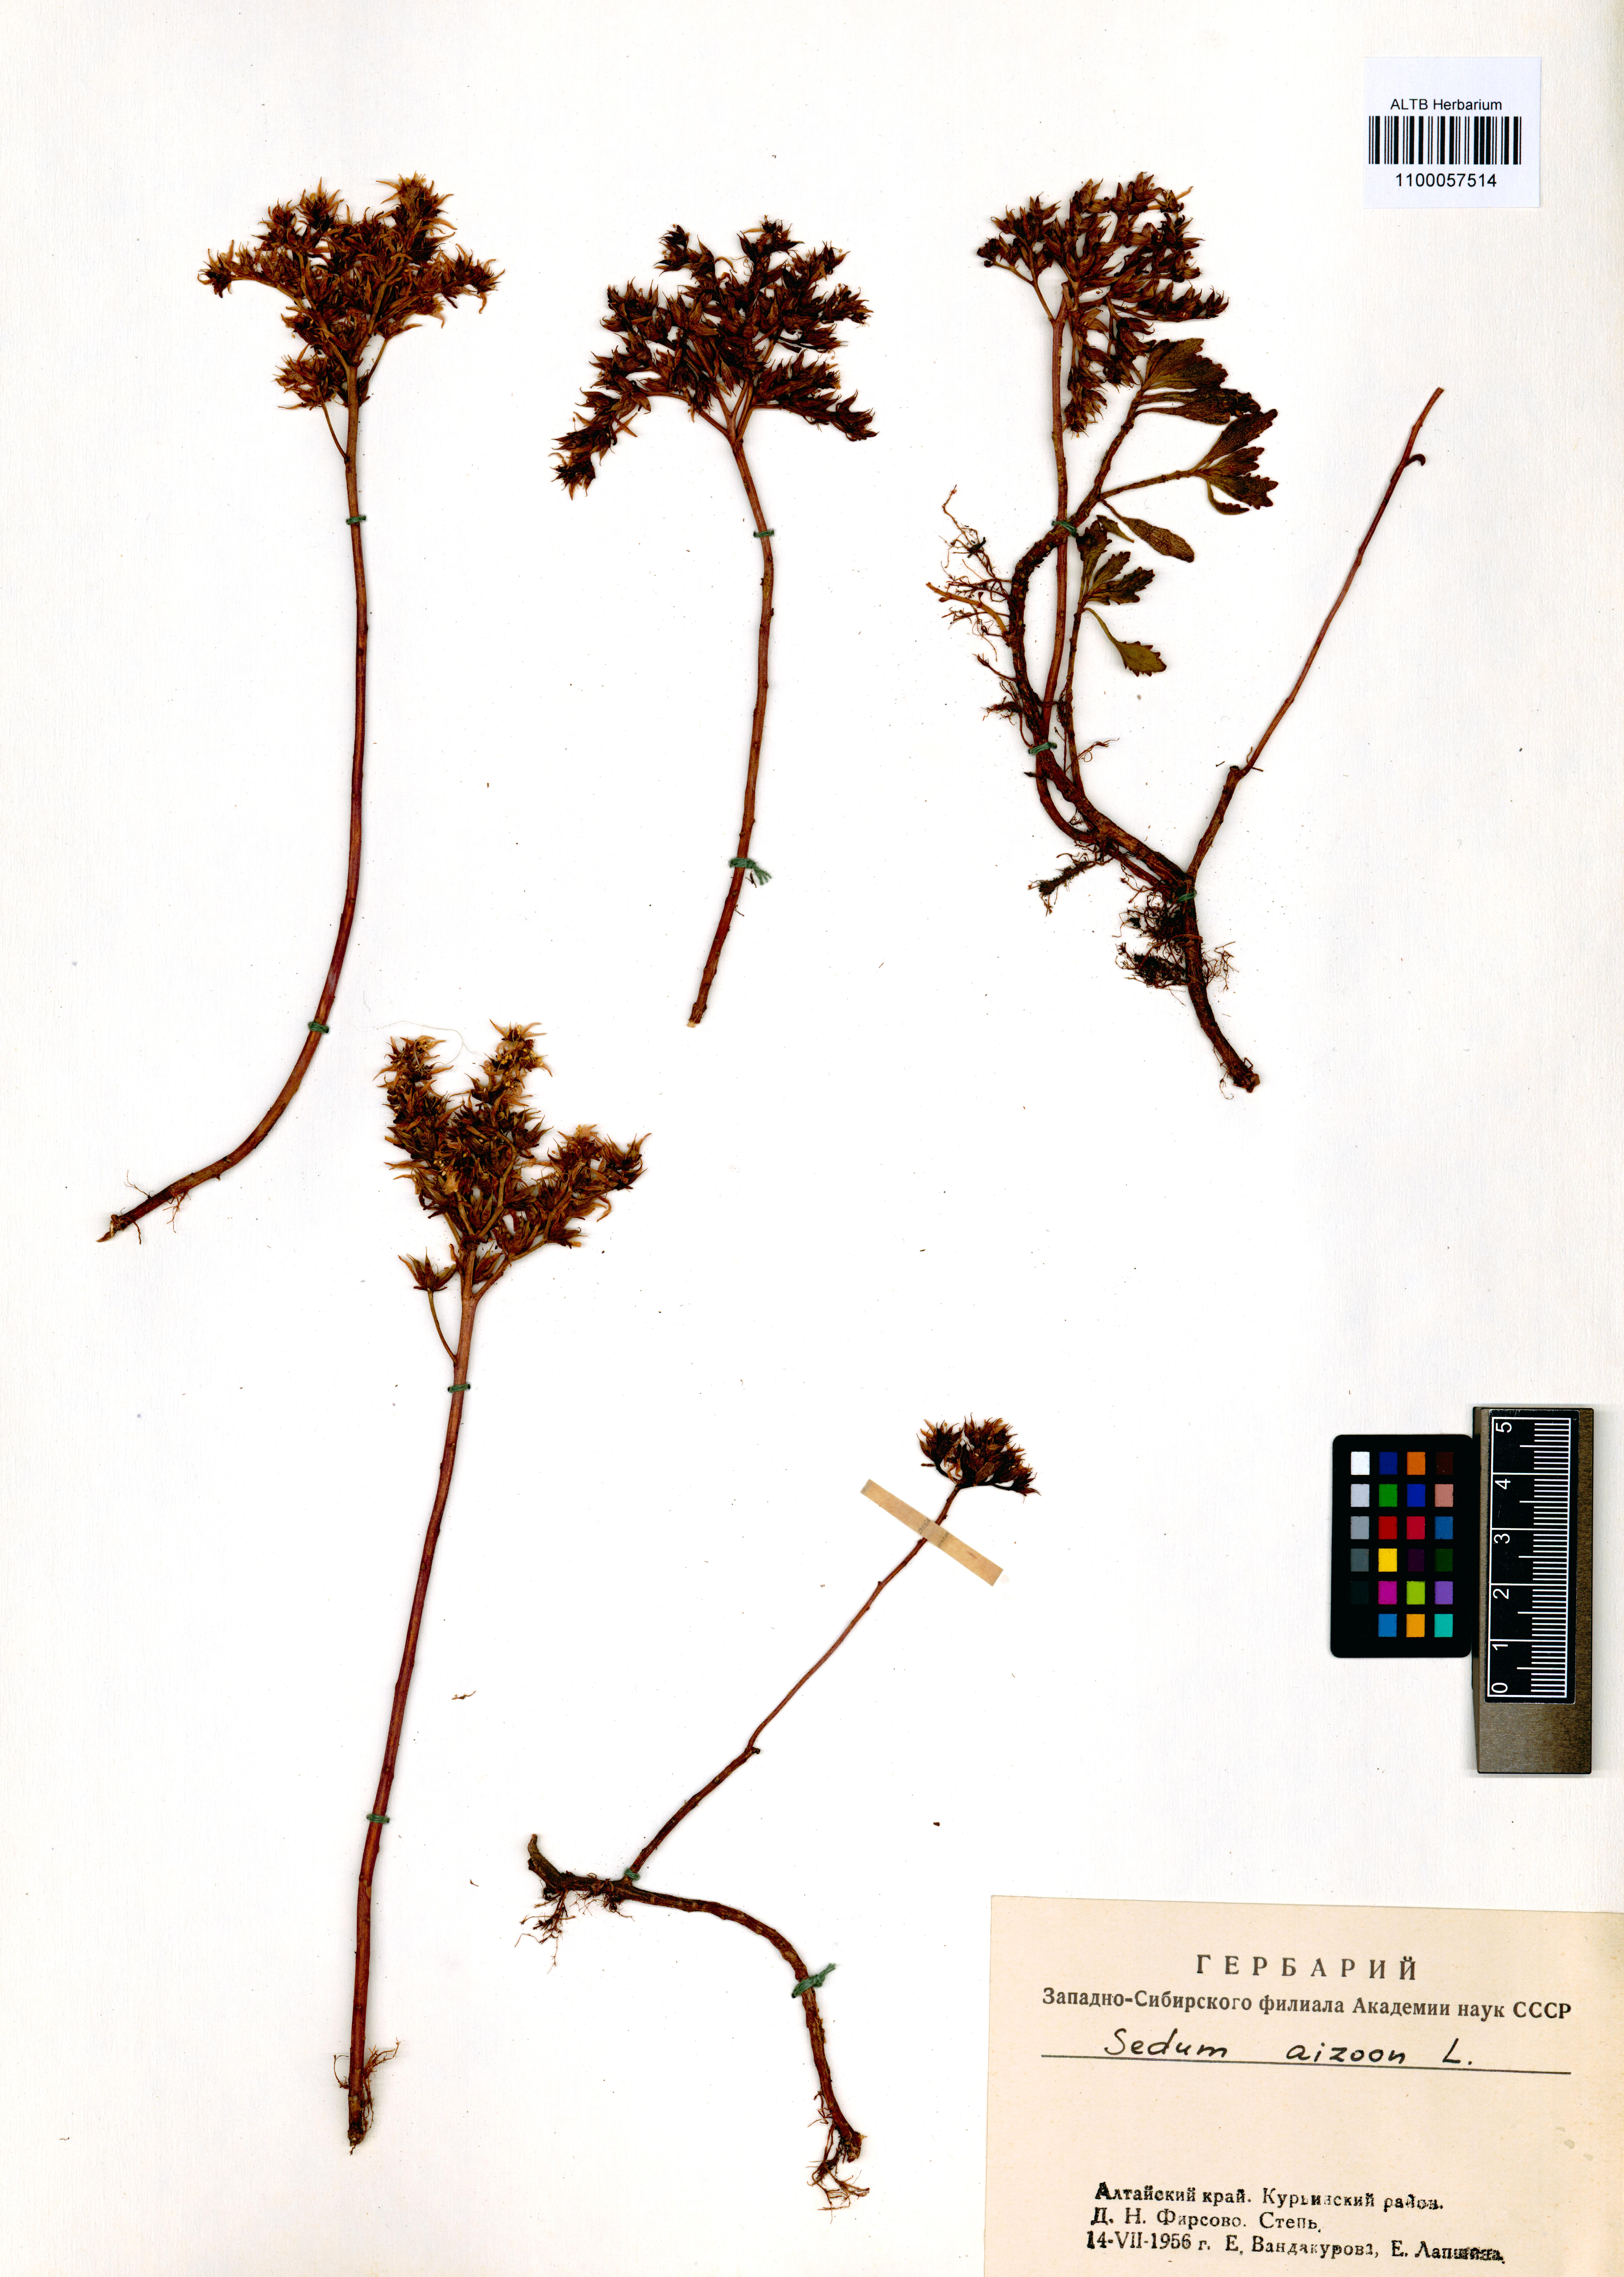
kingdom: Plantae
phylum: Tracheophyta
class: Magnoliopsida
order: Saxifragales
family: Crassulaceae
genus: Phedimus
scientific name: Phedimus aizoon
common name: Orpin aizoon
